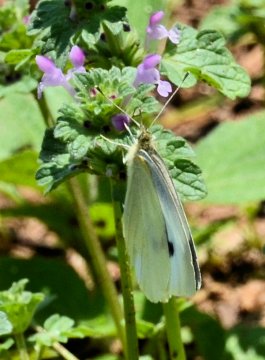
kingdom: Animalia
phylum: Arthropoda
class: Insecta
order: Lepidoptera
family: Pieridae
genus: Pieris
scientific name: Pieris rapae
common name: Cabbage White
